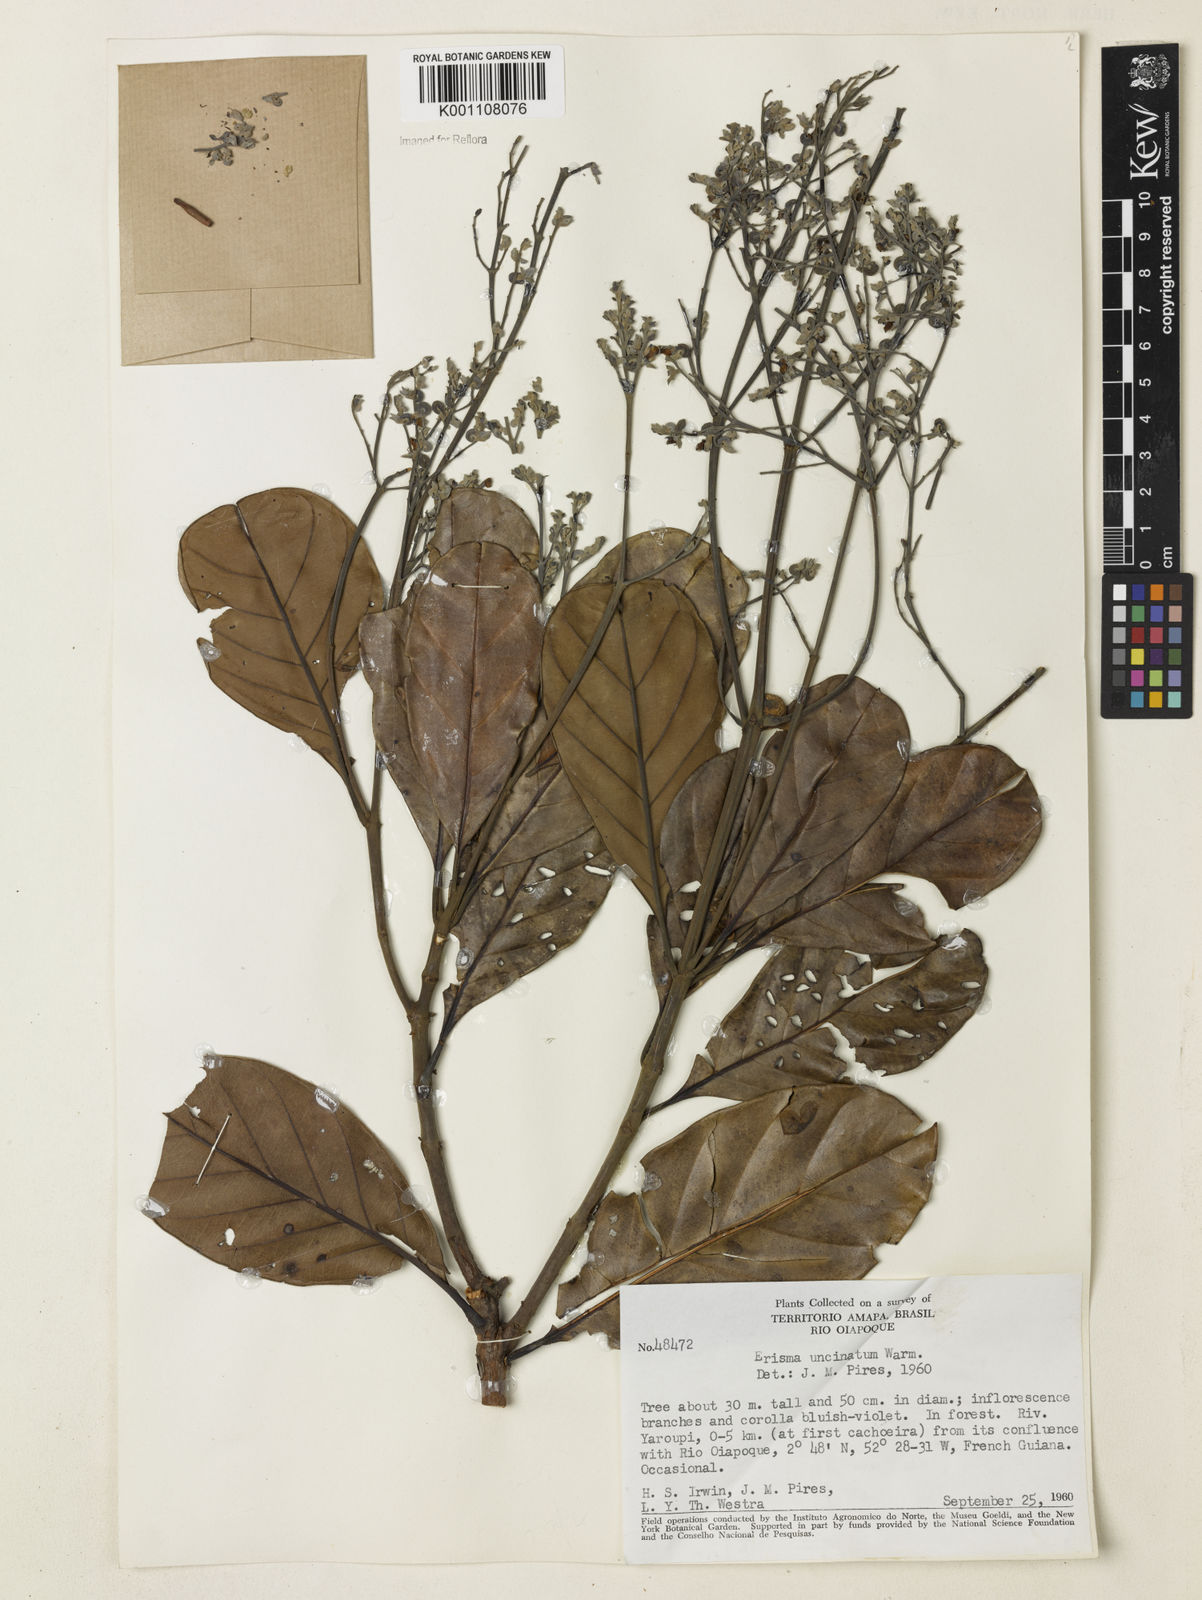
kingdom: Plantae
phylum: Tracheophyta
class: Magnoliopsida
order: Myrtales
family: Vochysiaceae
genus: Erisma
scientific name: Erisma uncinatum
